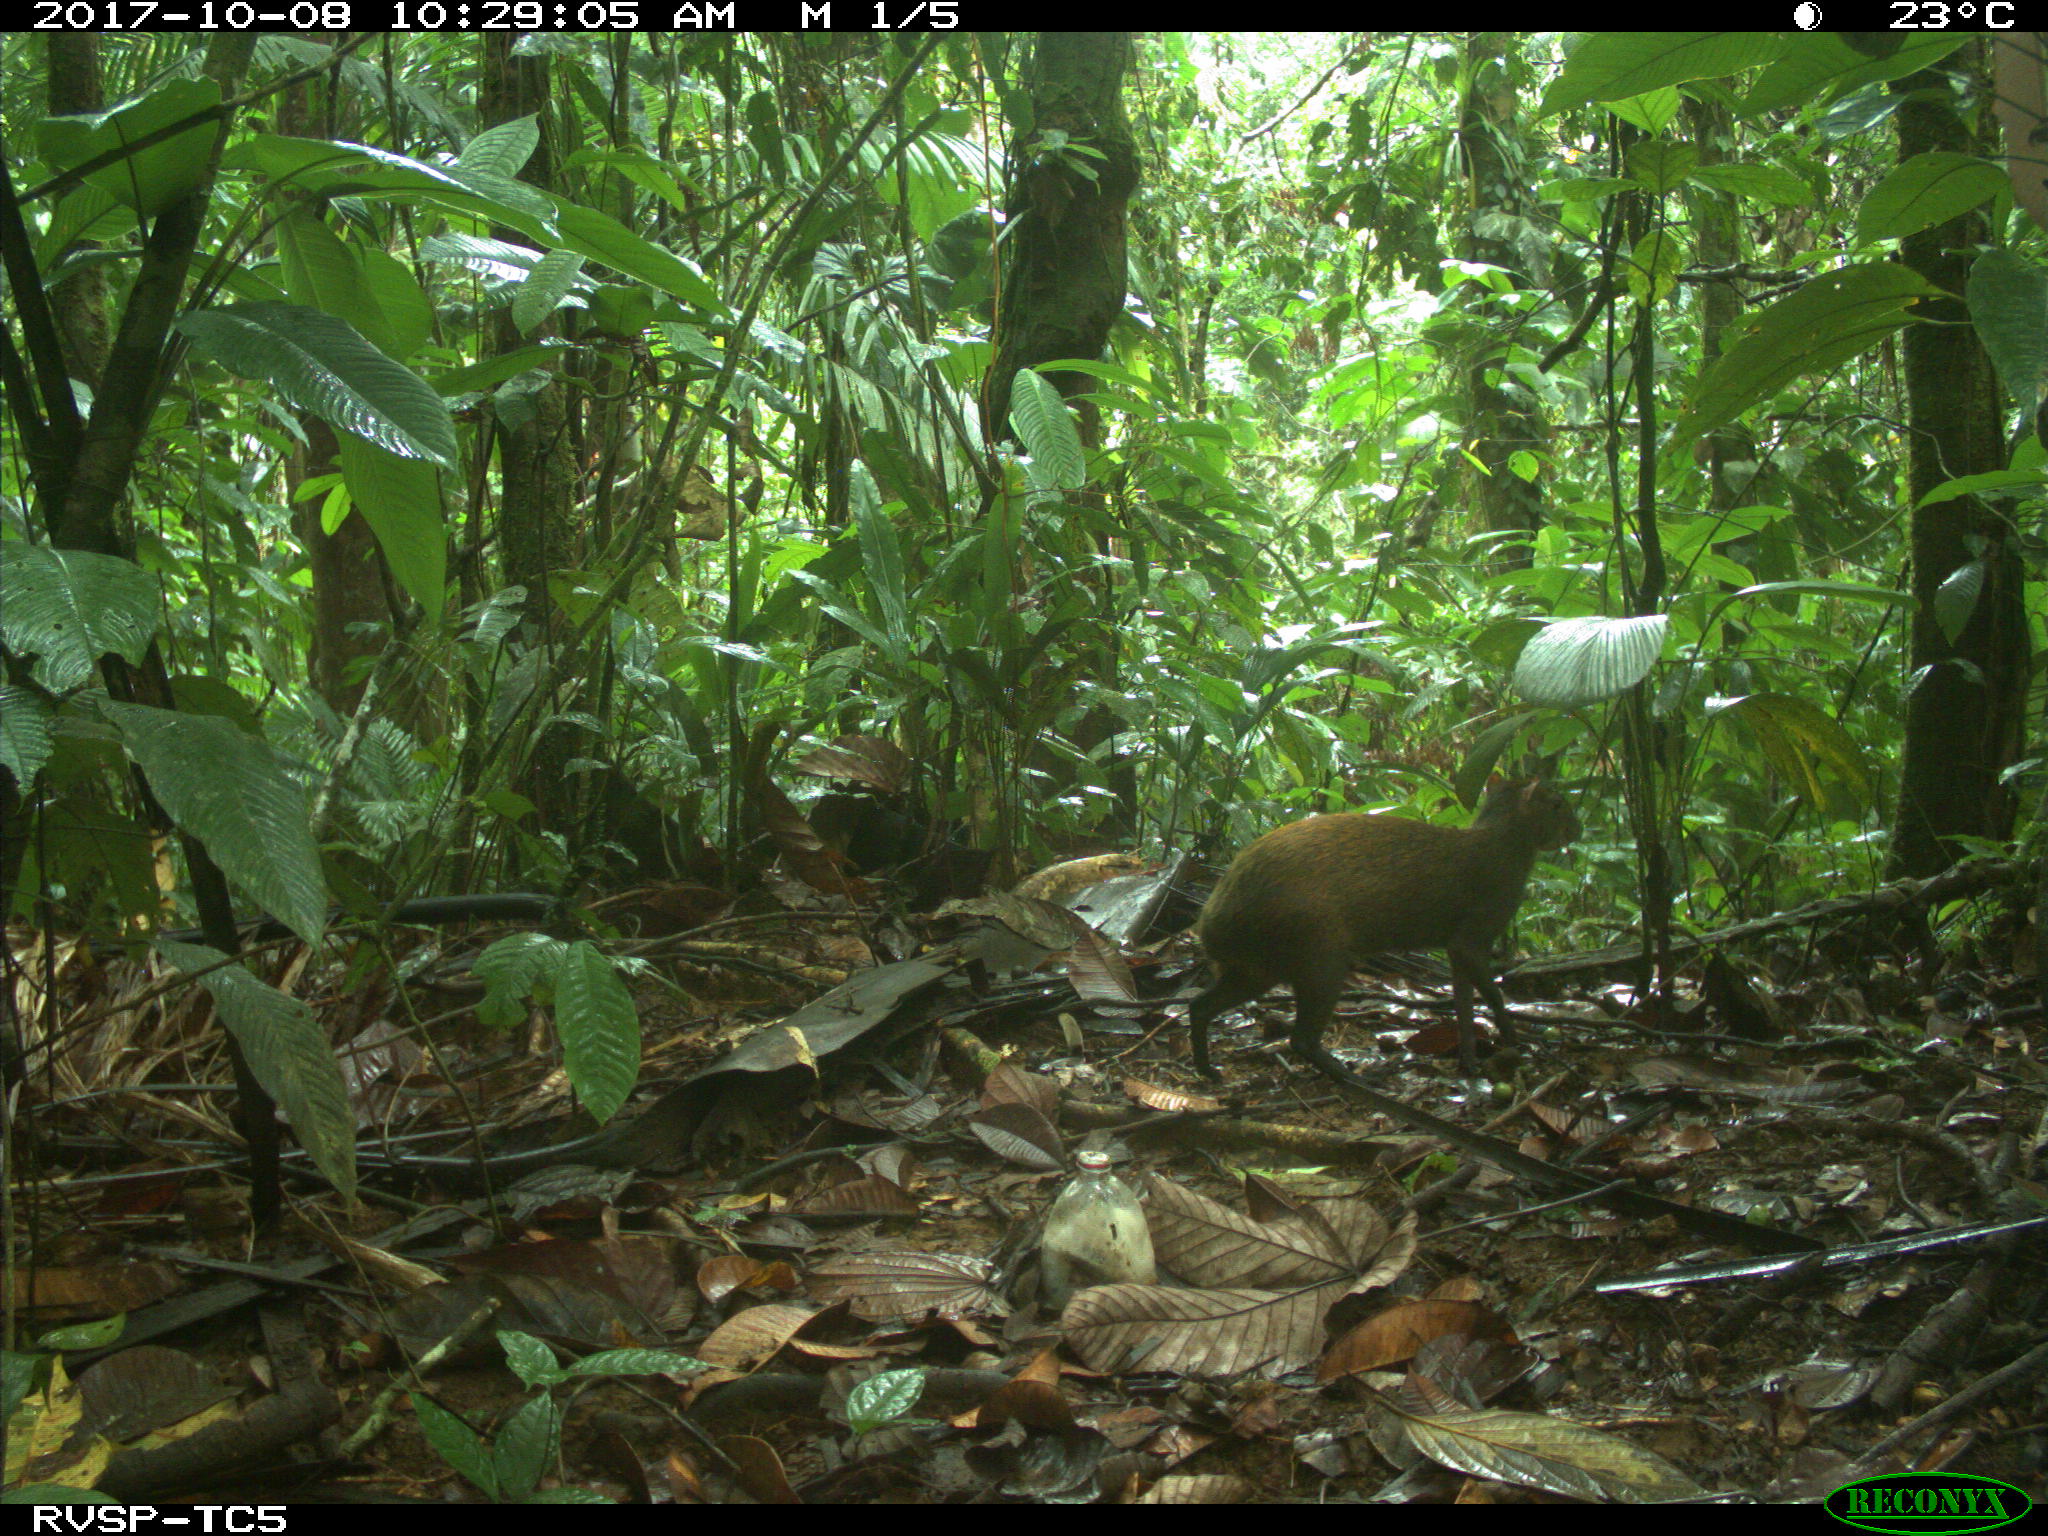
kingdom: Animalia
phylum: Chordata
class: Mammalia
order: Rodentia
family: Dasyproctidae
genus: Dasyprocta
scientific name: Dasyprocta punctata
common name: Central american agouti
